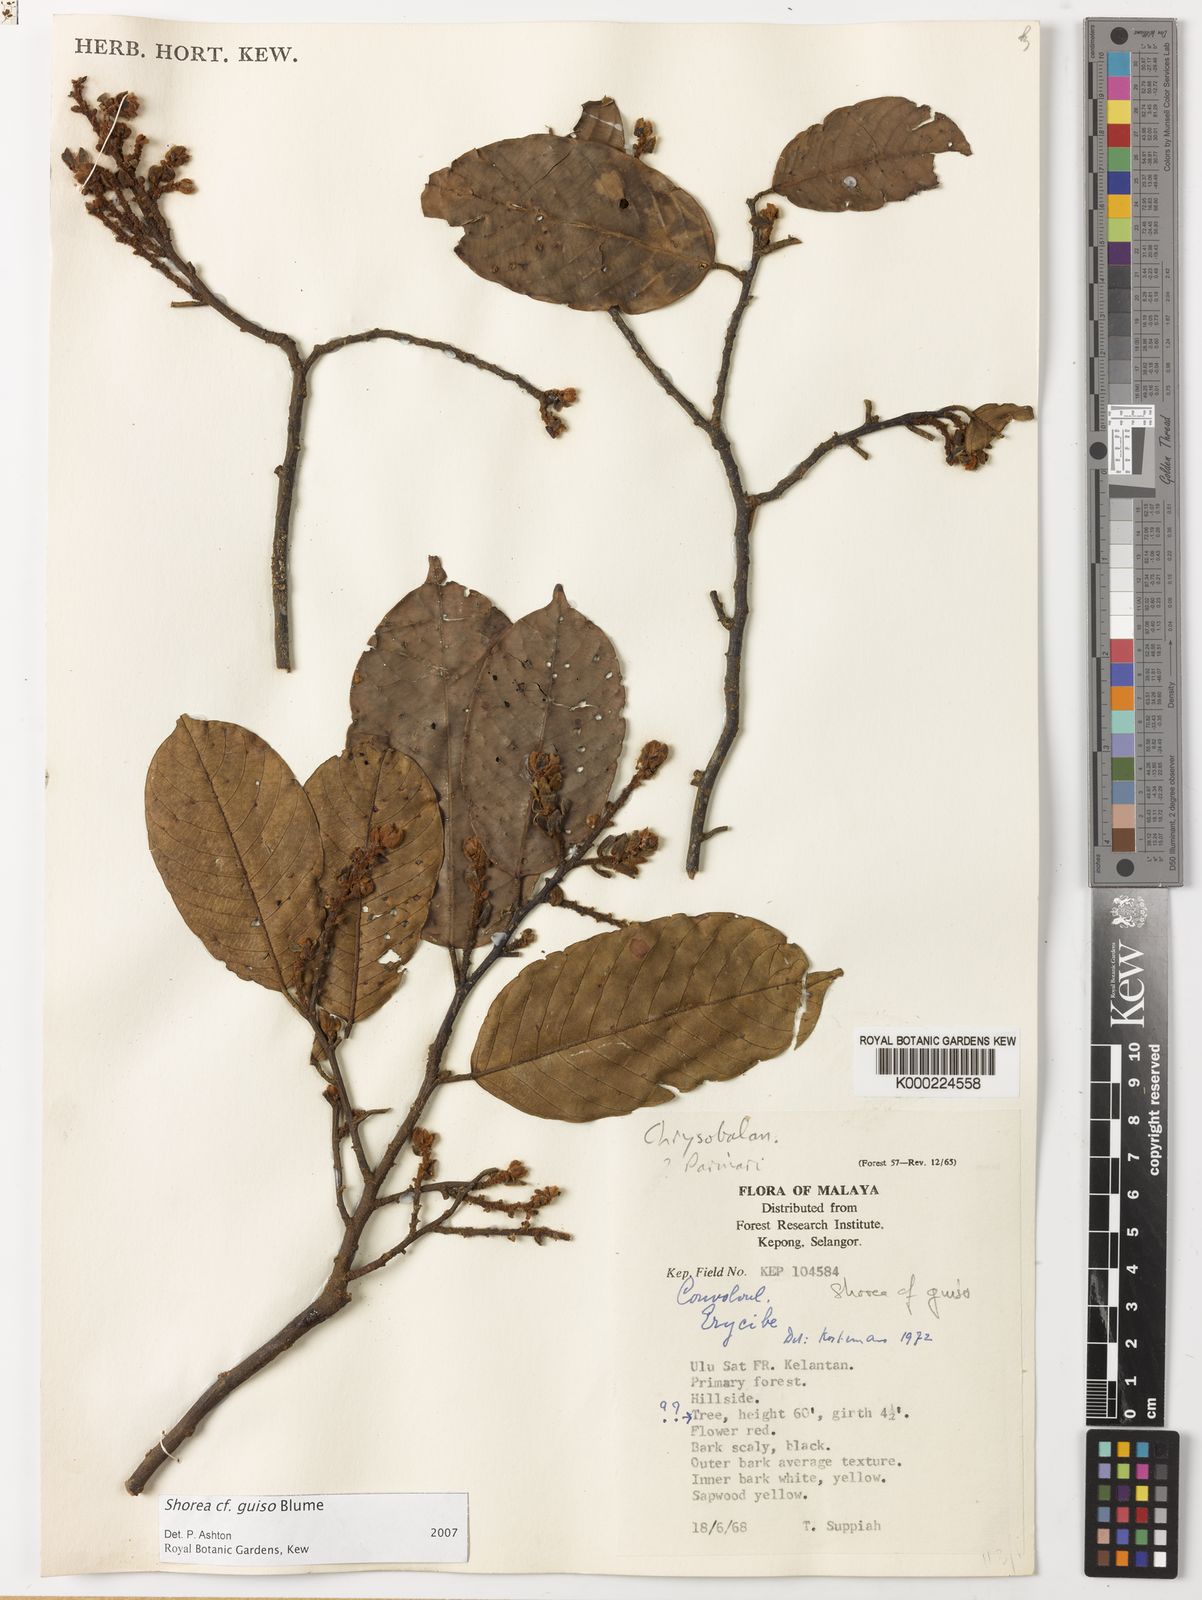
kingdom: Plantae
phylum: Tracheophyta
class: Magnoliopsida
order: Malvales
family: Dipterocarpaceae
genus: Shorea
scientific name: Shorea guiso
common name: Red balau
